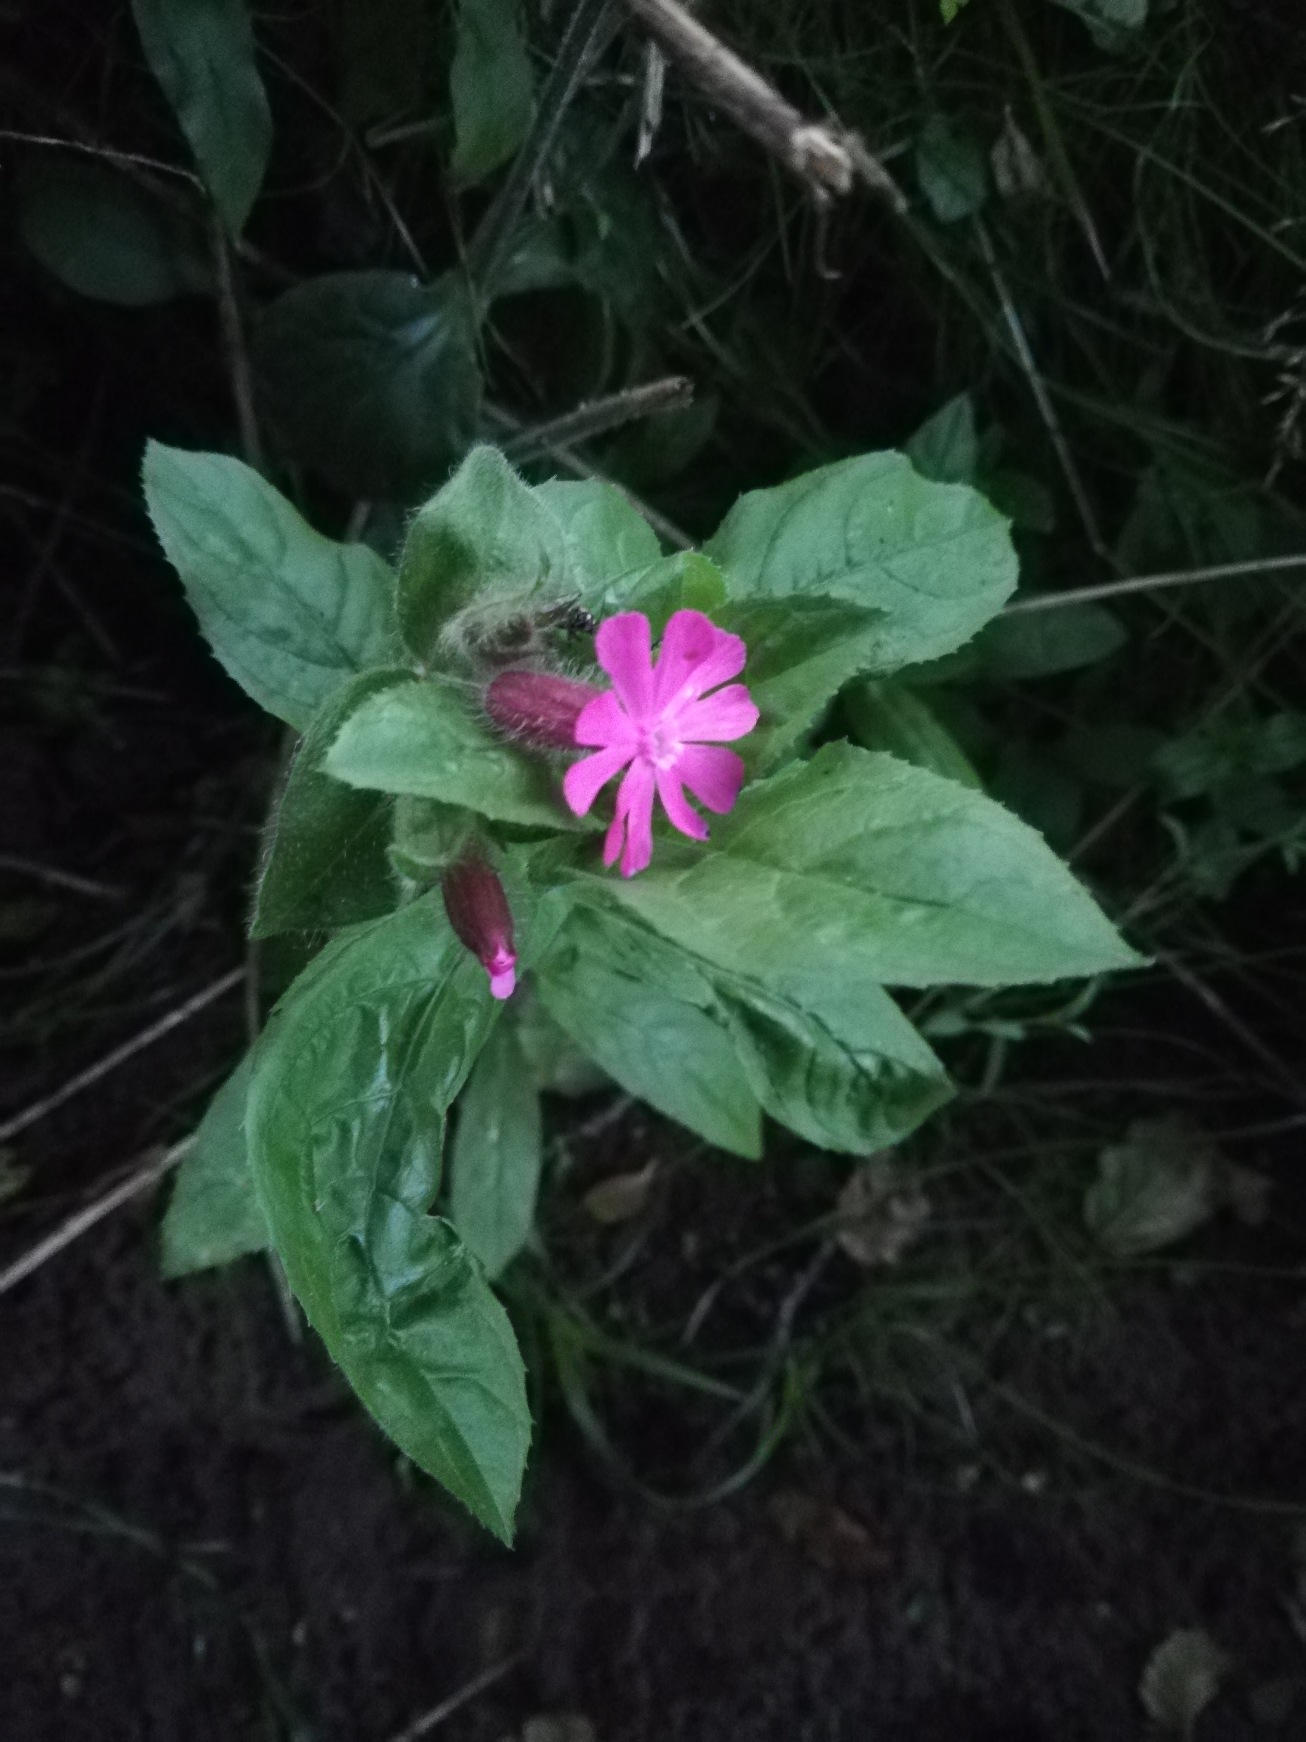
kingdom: Plantae
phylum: Tracheophyta
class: Magnoliopsida
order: Caryophyllales
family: Caryophyllaceae
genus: Silene
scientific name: Silene dioica
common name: Dagpragtstjerne
